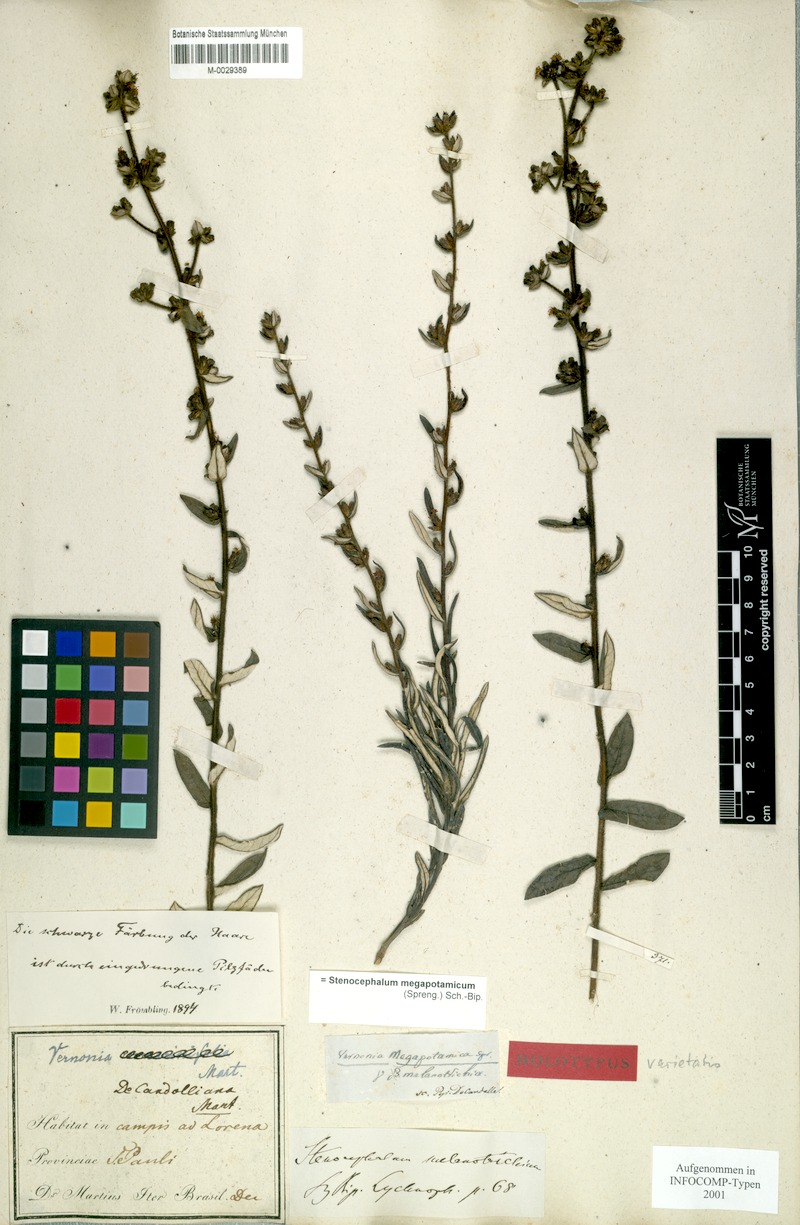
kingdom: Plantae
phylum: Tracheophyta
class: Magnoliopsida
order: Asterales
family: Asteraceae
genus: Stenocephalum
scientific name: Stenocephalum megapotamicum
